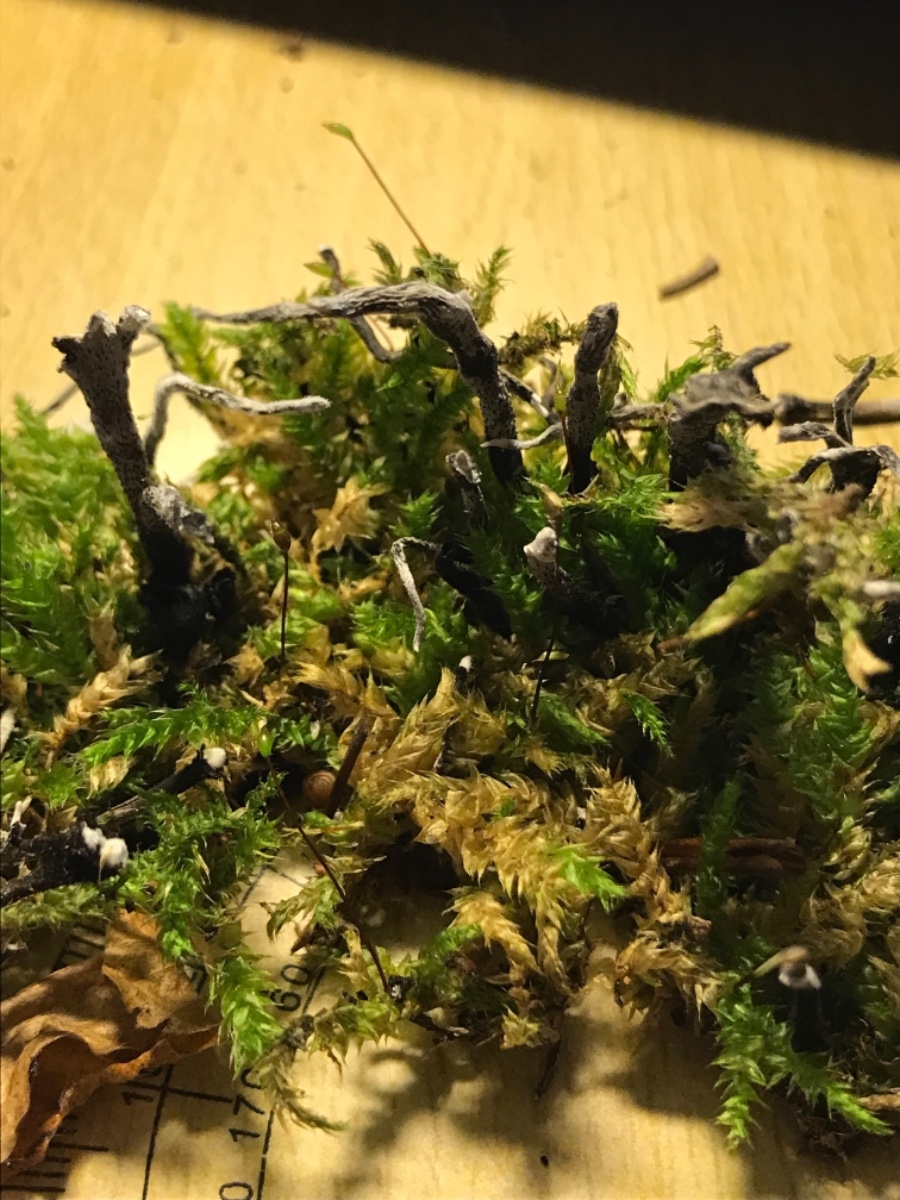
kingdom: Fungi
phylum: Ascomycota
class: Sordariomycetes
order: Xylariales
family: Xylariaceae
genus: Xylaria
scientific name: Xylaria hypoxylon
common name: grenet stødsvamp
